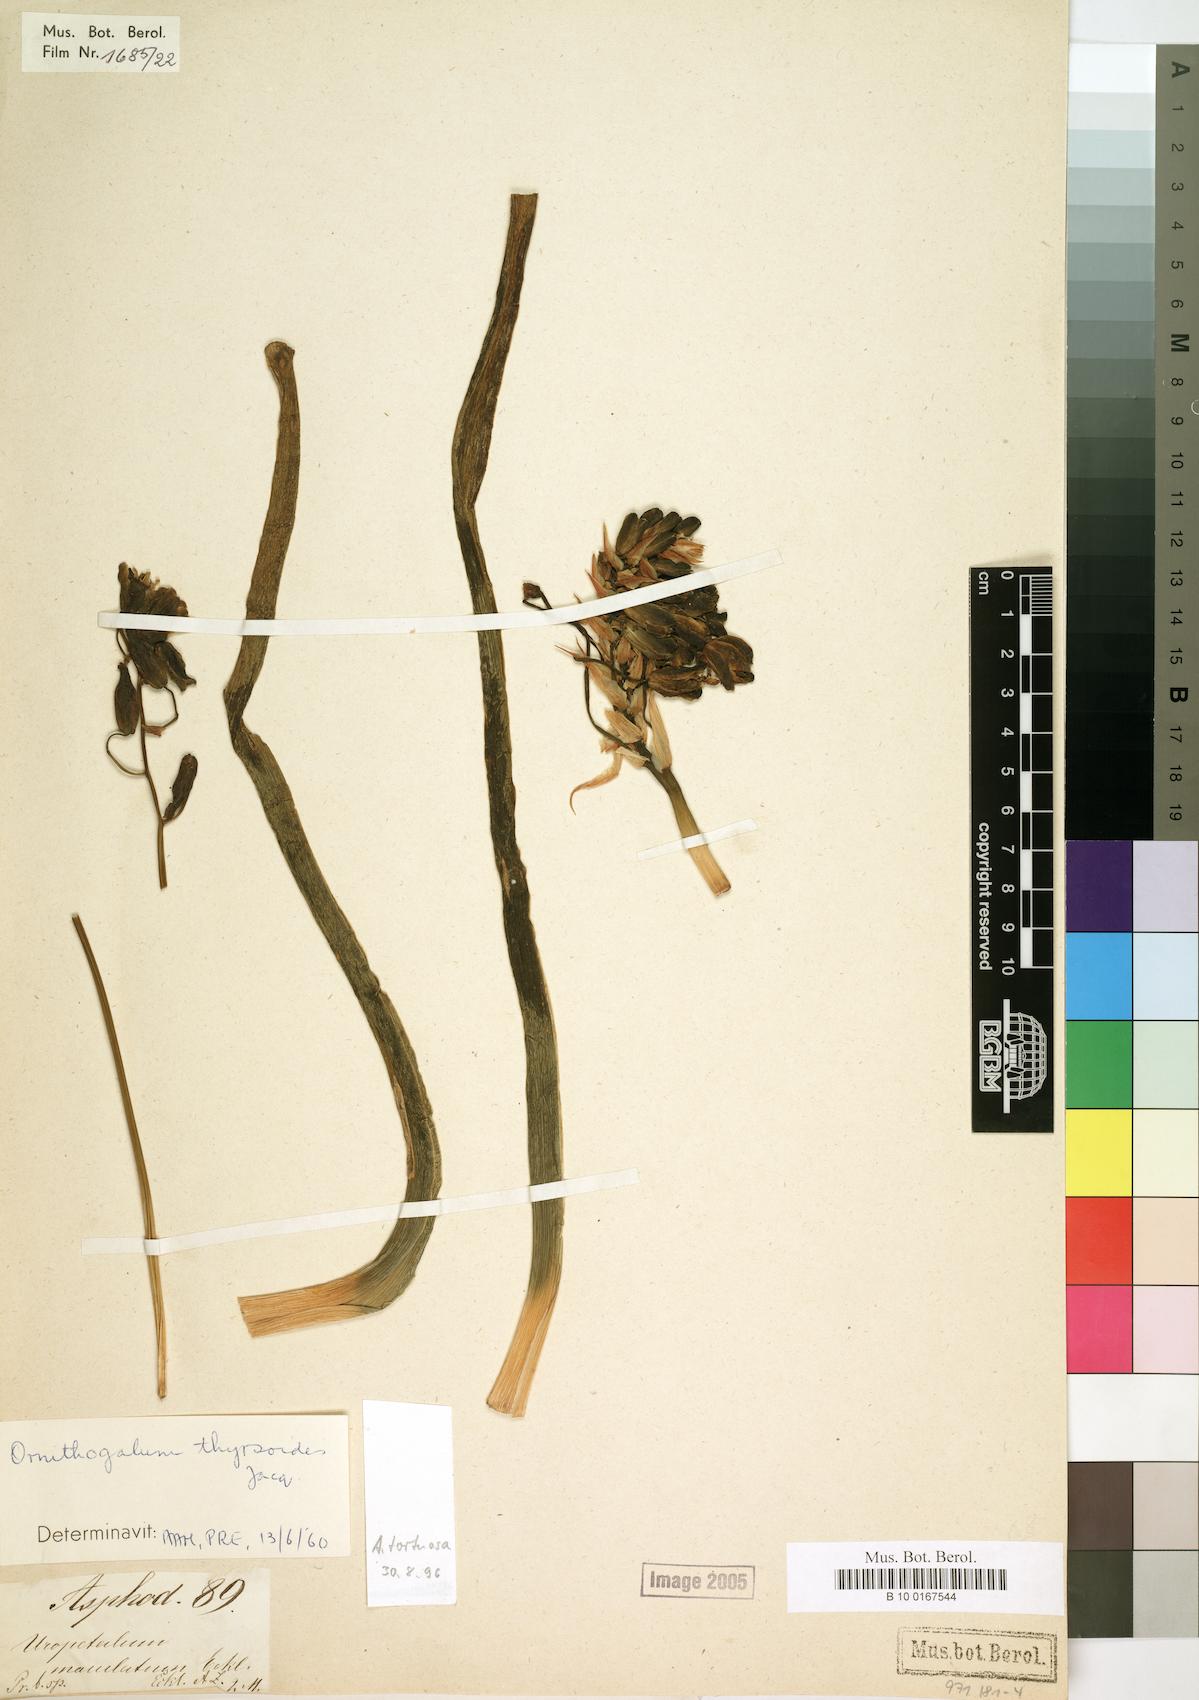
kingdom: Plantae
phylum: Tracheophyta
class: Liliopsida
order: Asparagales
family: Asparagaceae
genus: Ornithogalum
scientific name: Ornithogalum thyrsoides
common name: Chincherinchee
